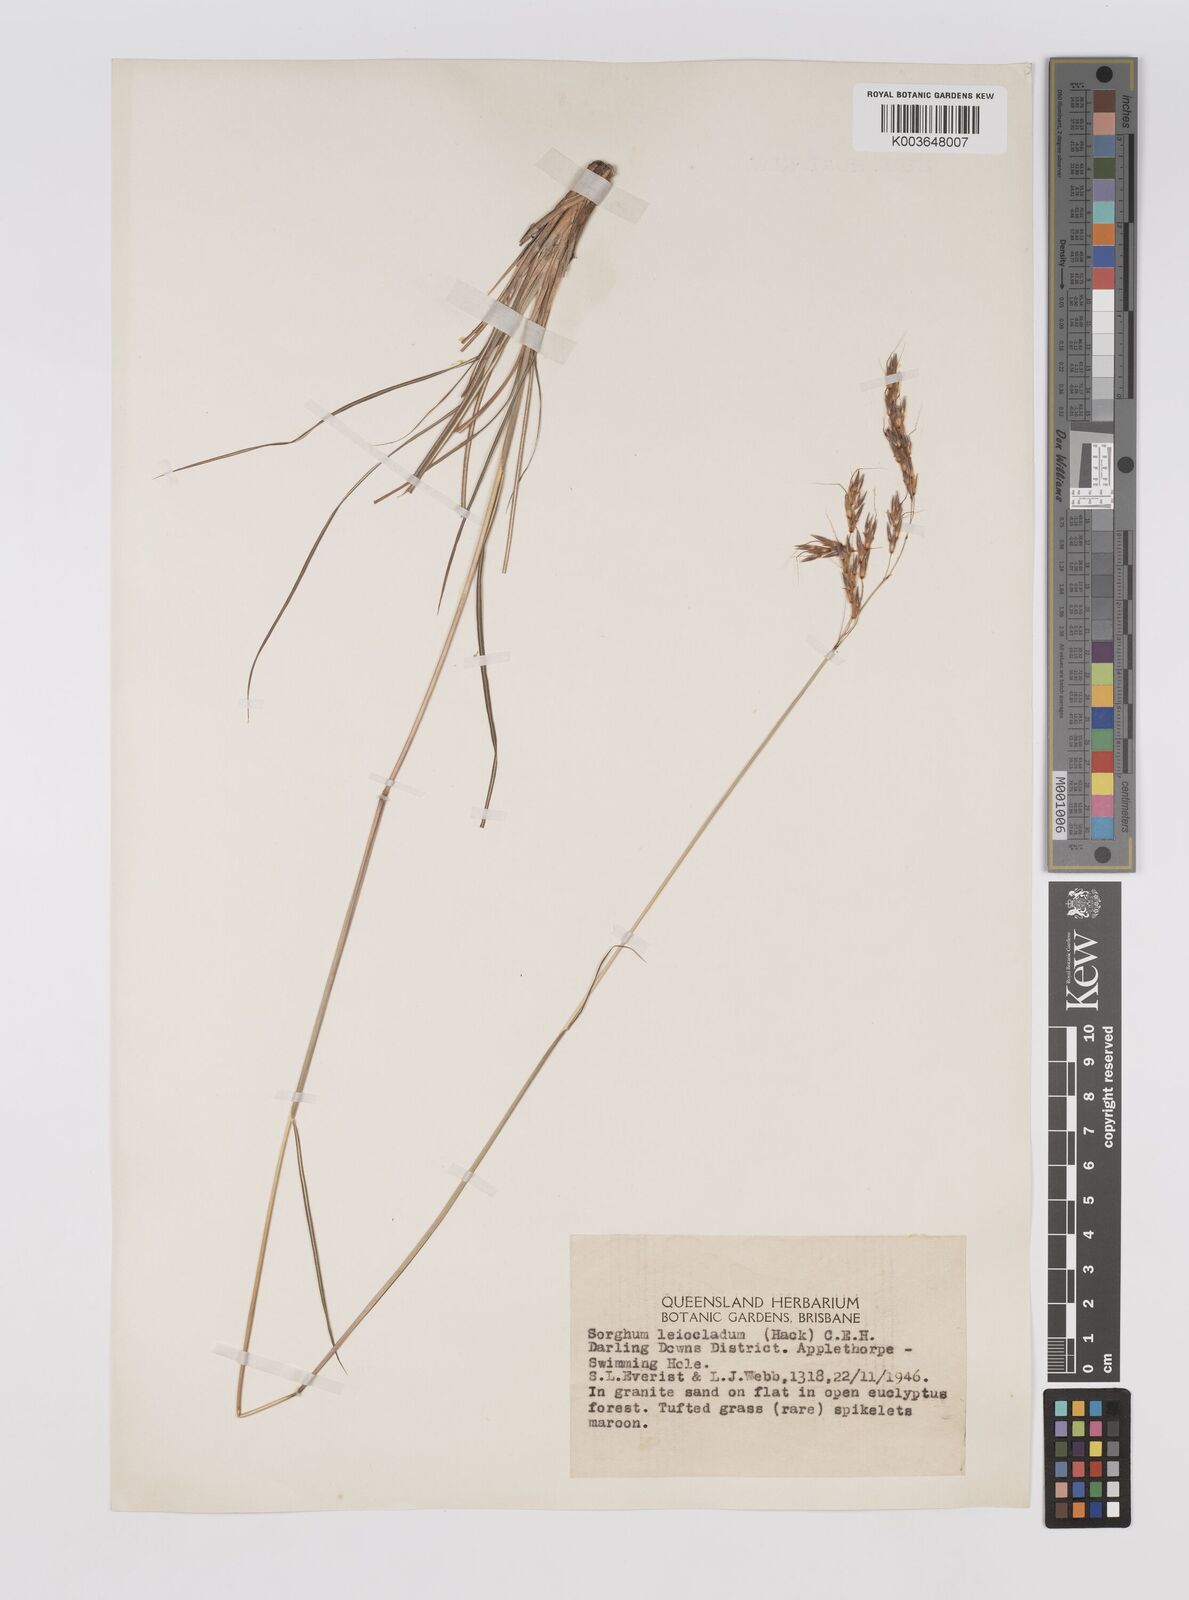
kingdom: Plantae
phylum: Tracheophyta
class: Liliopsida
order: Poales
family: Poaceae
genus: Sarga
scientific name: Sarga leioclada
